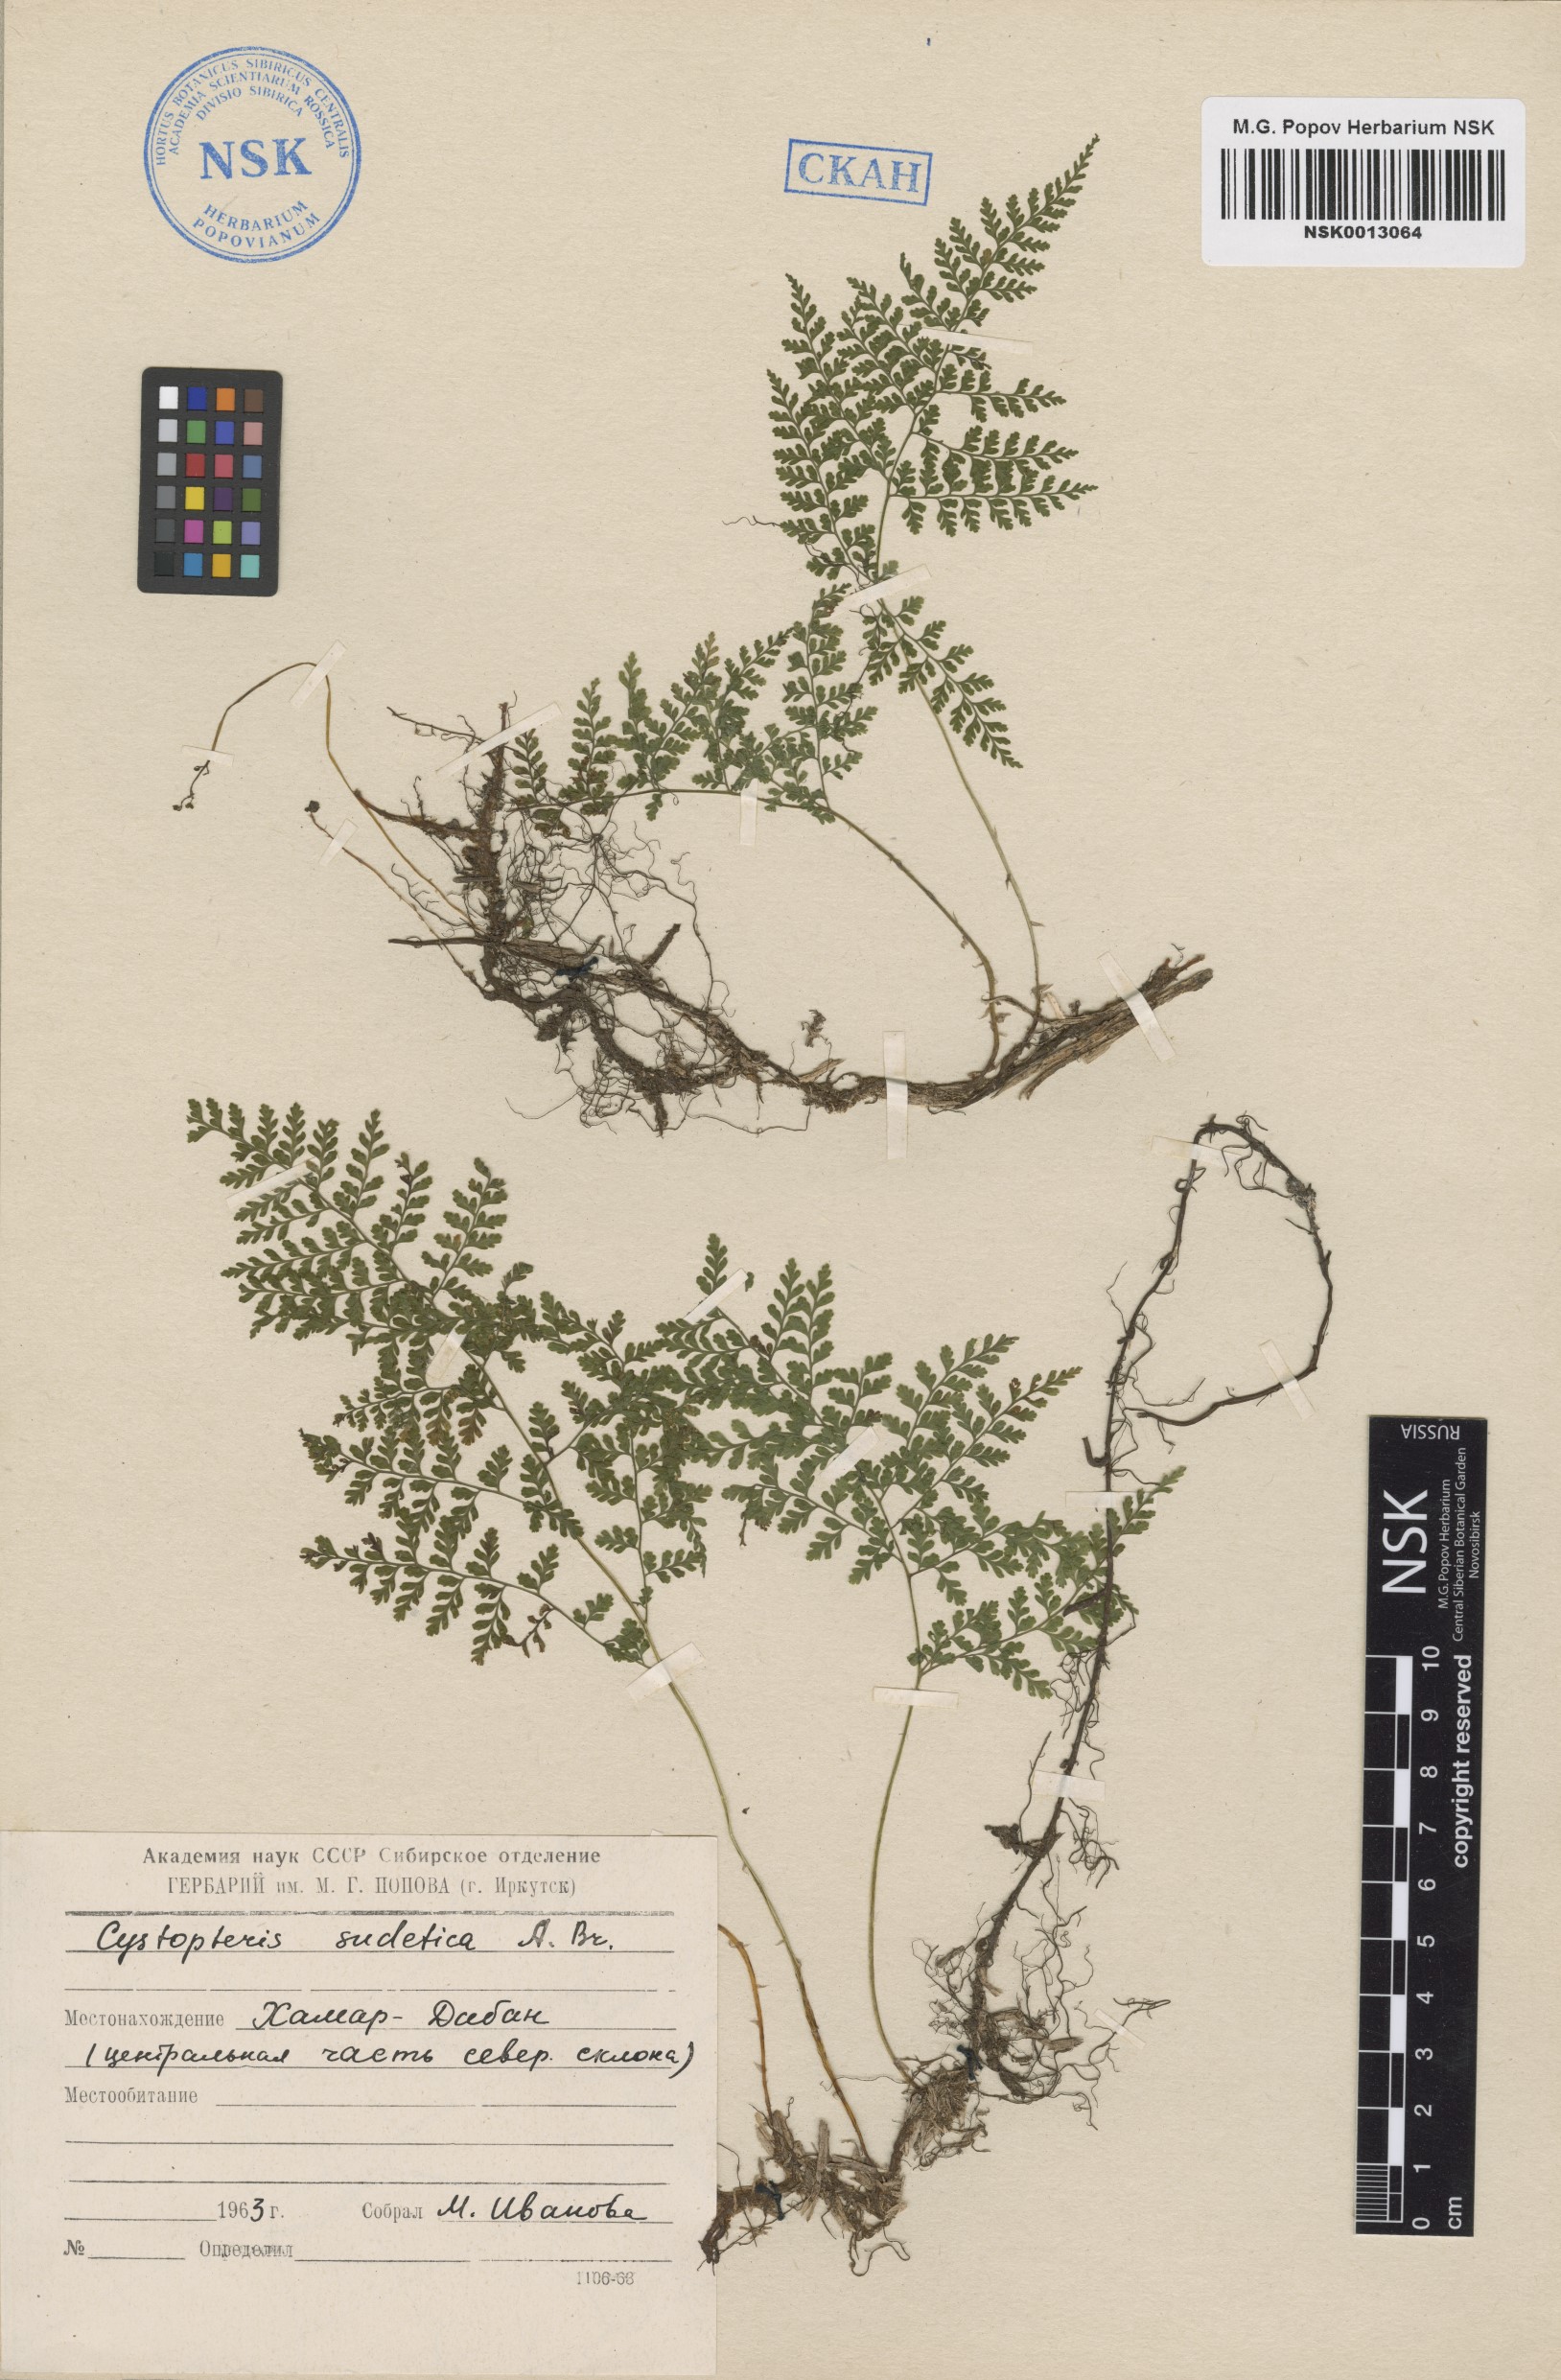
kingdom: Plantae
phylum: Tracheophyta
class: Polypodiopsida
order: Polypodiales
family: Cystopteridaceae
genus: Cystopteris
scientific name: Cystopteris sudetica
